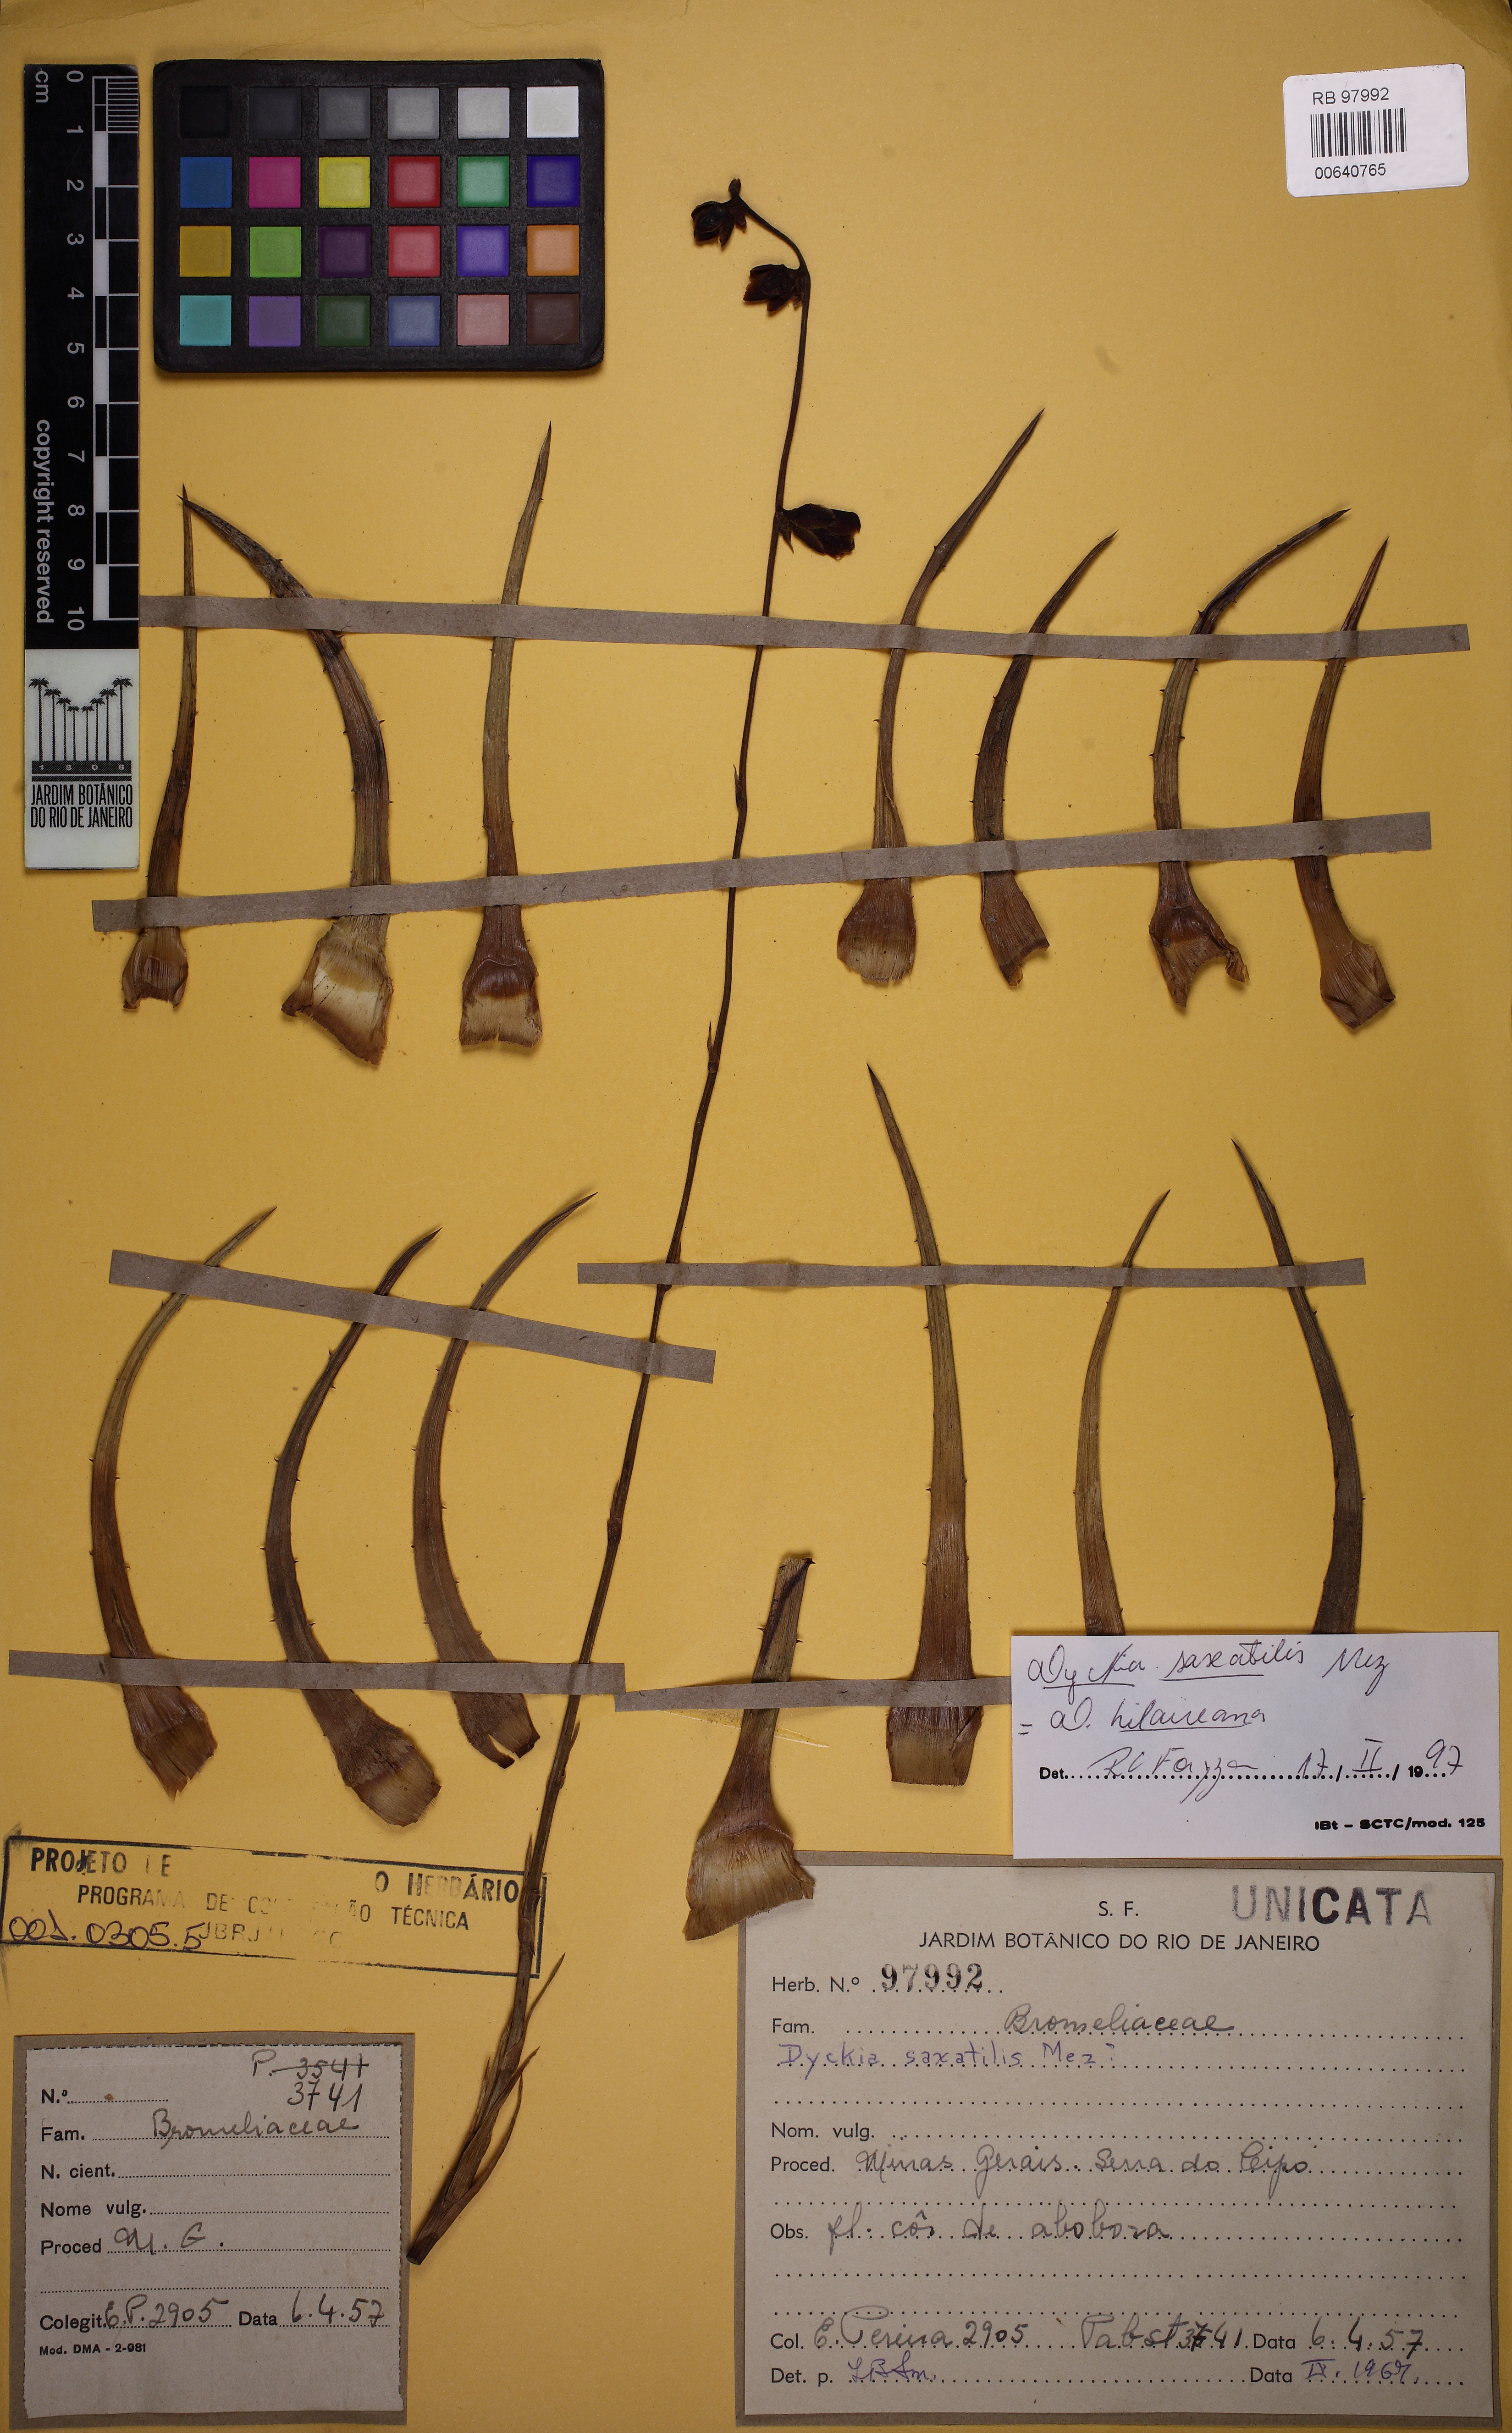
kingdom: Plantae
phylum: Tracheophyta
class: Liliopsida
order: Poales
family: Bromeliaceae
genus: Dyckia
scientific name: Dyckia saxatilis
